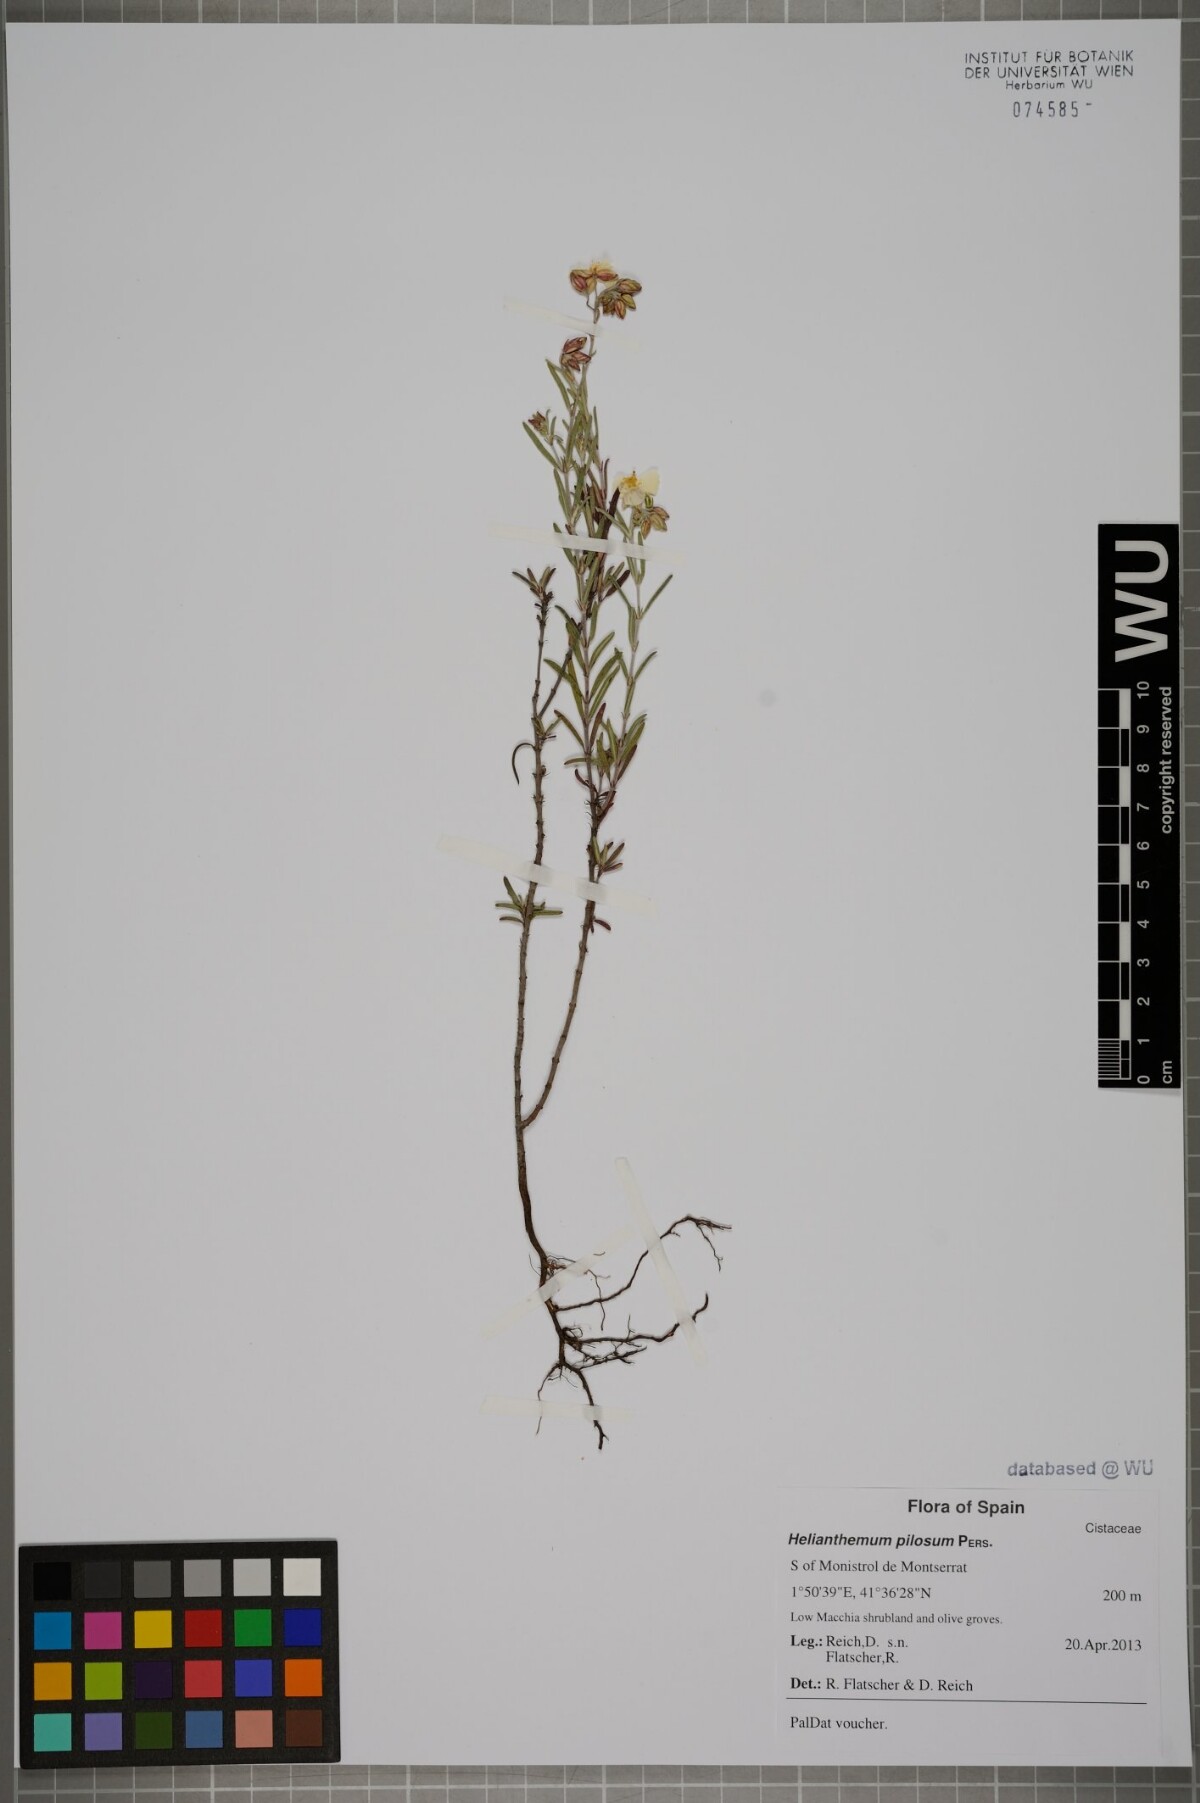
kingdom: Plantae
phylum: Tracheophyta
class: Magnoliopsida
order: Malvales
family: Cistaceae
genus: Fumana
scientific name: Fumana laevis
